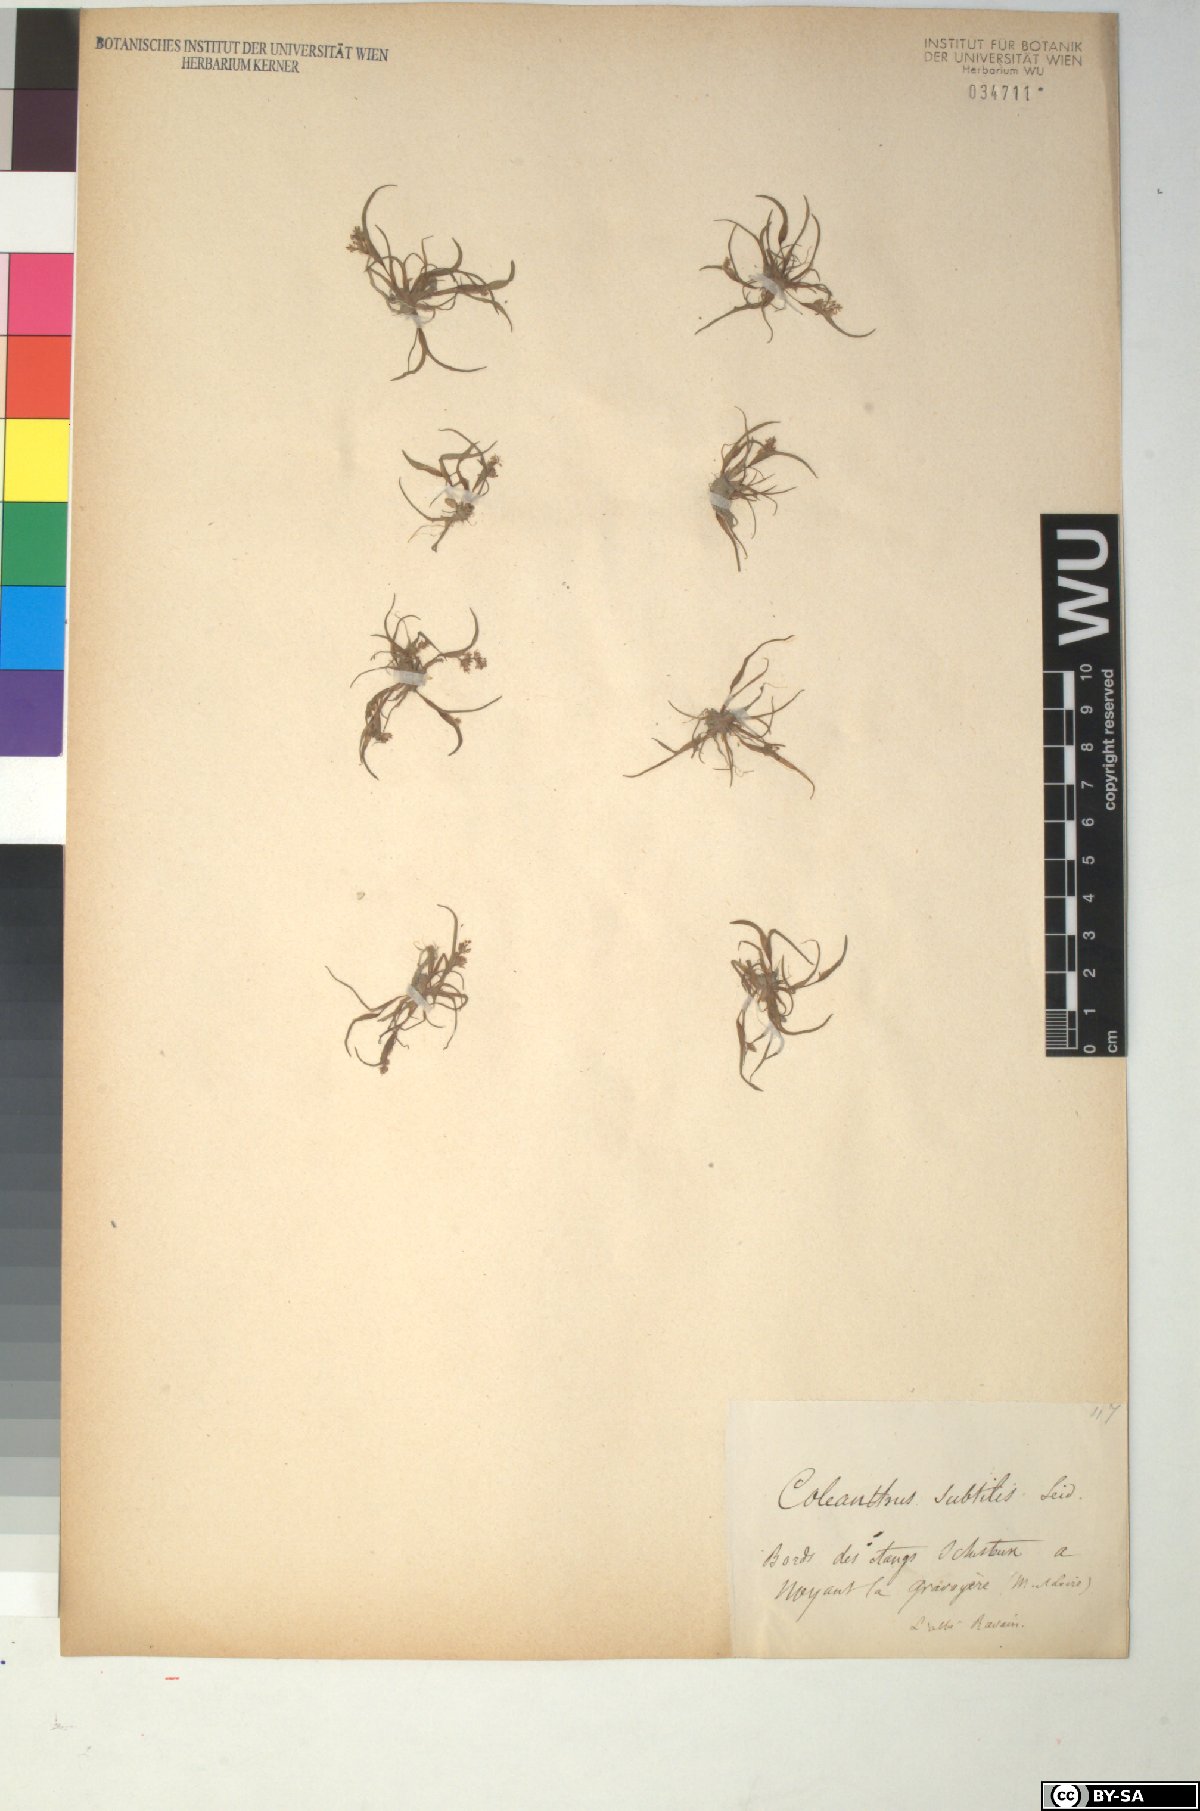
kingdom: Plantae
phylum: Tracheophyta
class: Liliopsida
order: Poales
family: Poaceae
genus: Coleanthus
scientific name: Coleanthus subtilis
